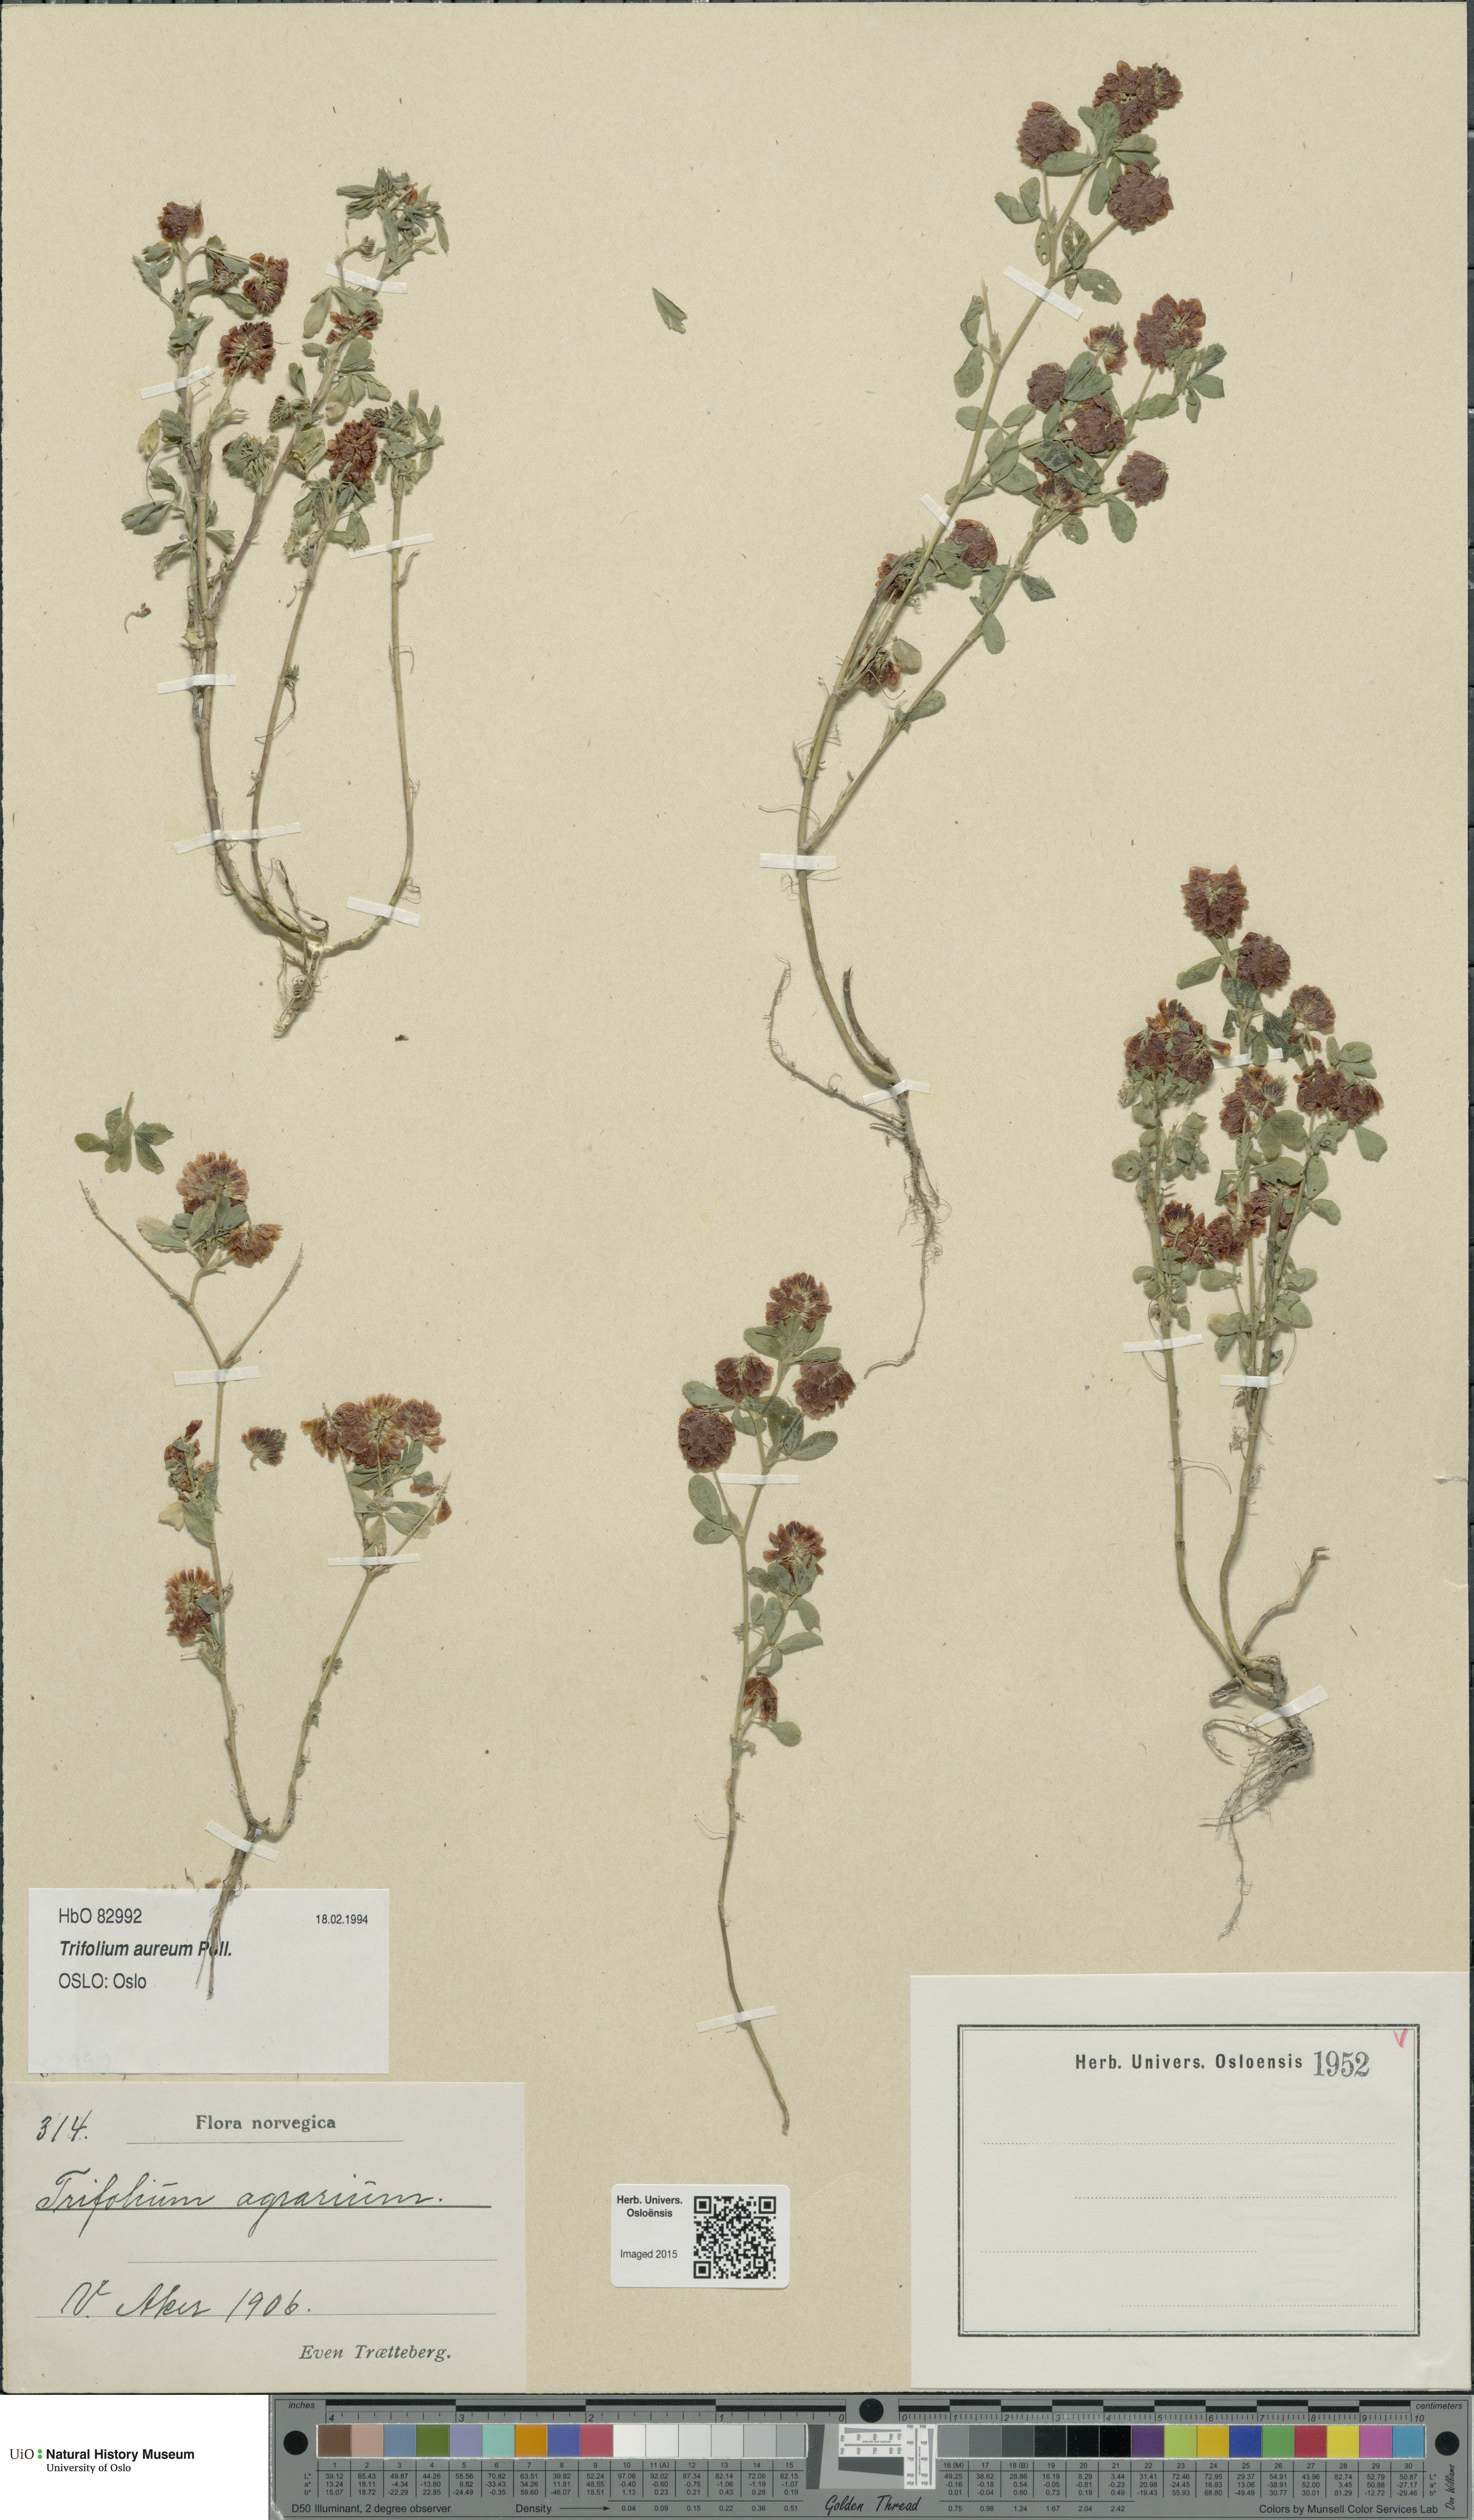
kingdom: Plantae
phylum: Tracheophyta
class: Magnoliopsida
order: Fabales
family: Fabaceae
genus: Trifolium
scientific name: Trifolium aureum
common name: Golden clover
